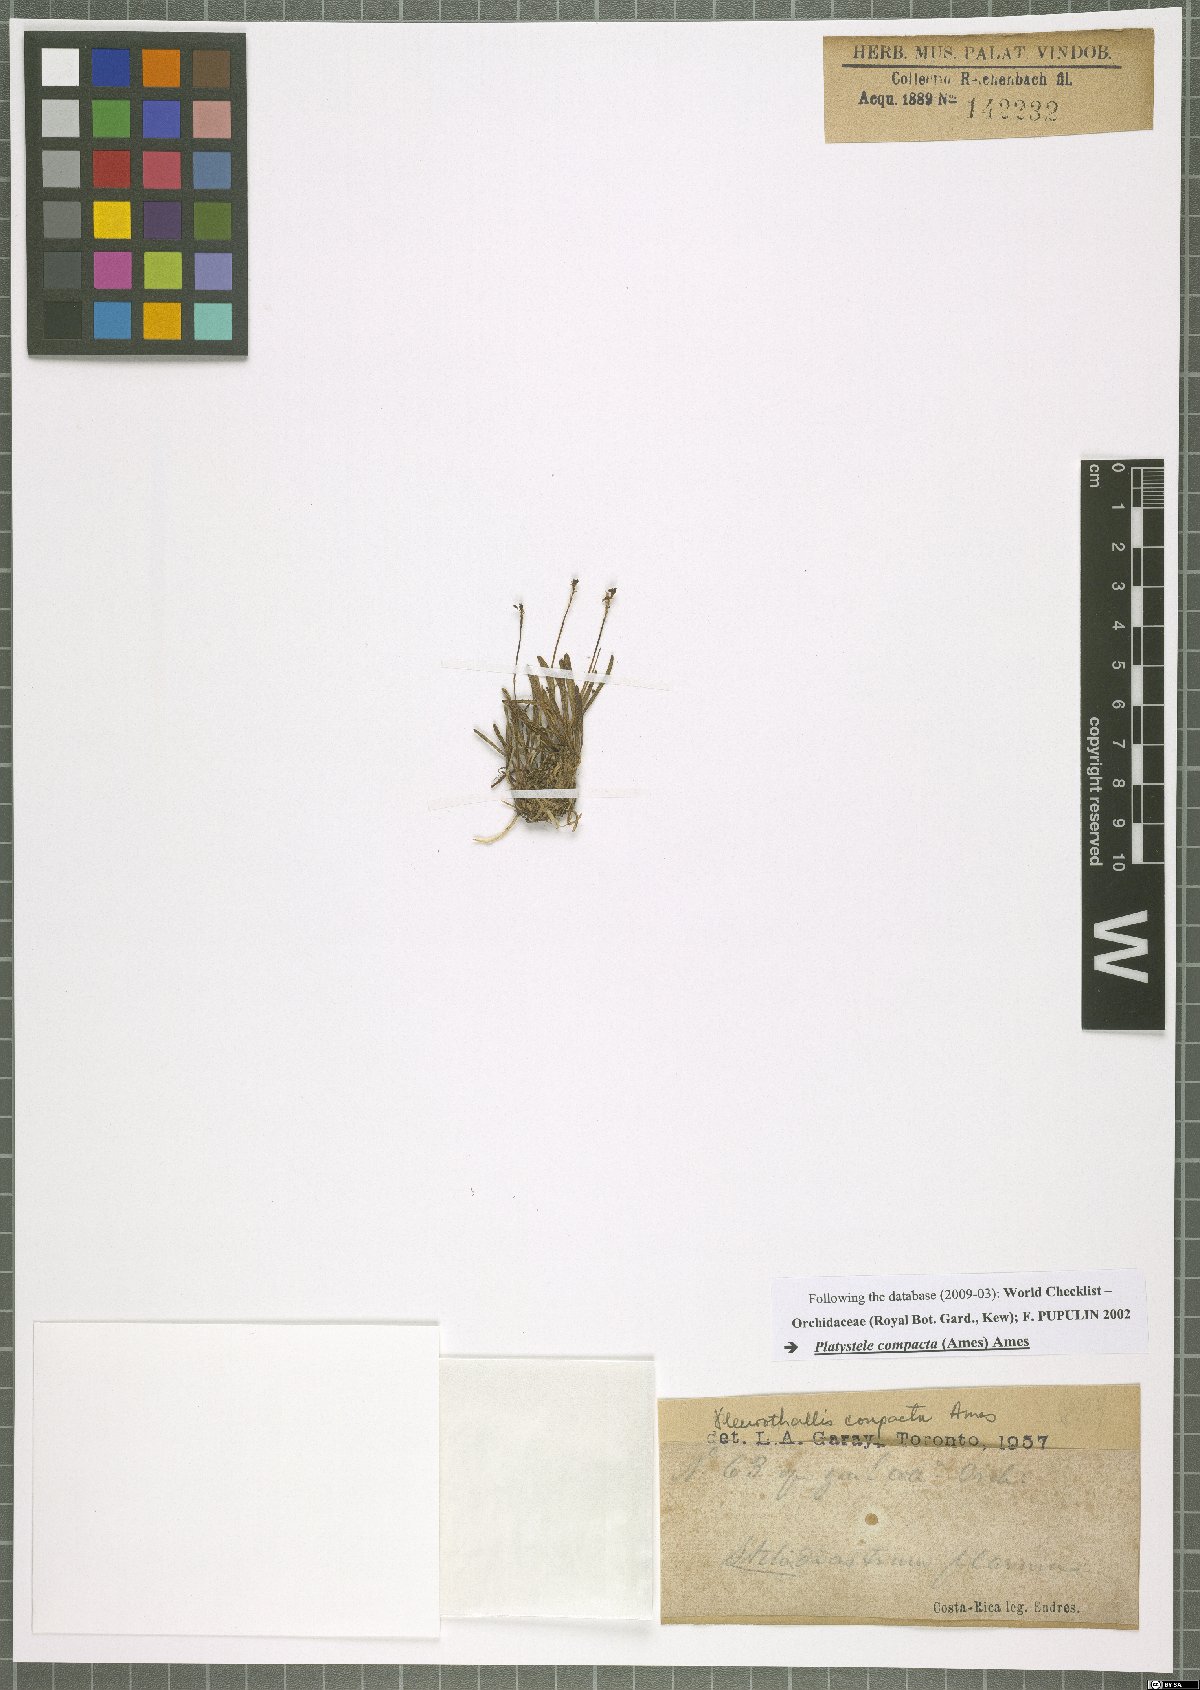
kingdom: Plantae
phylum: Tracheophyta
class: Liliopsida
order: Asparagales
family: Orchidaceae
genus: Platystele
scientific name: Platystele compacta
